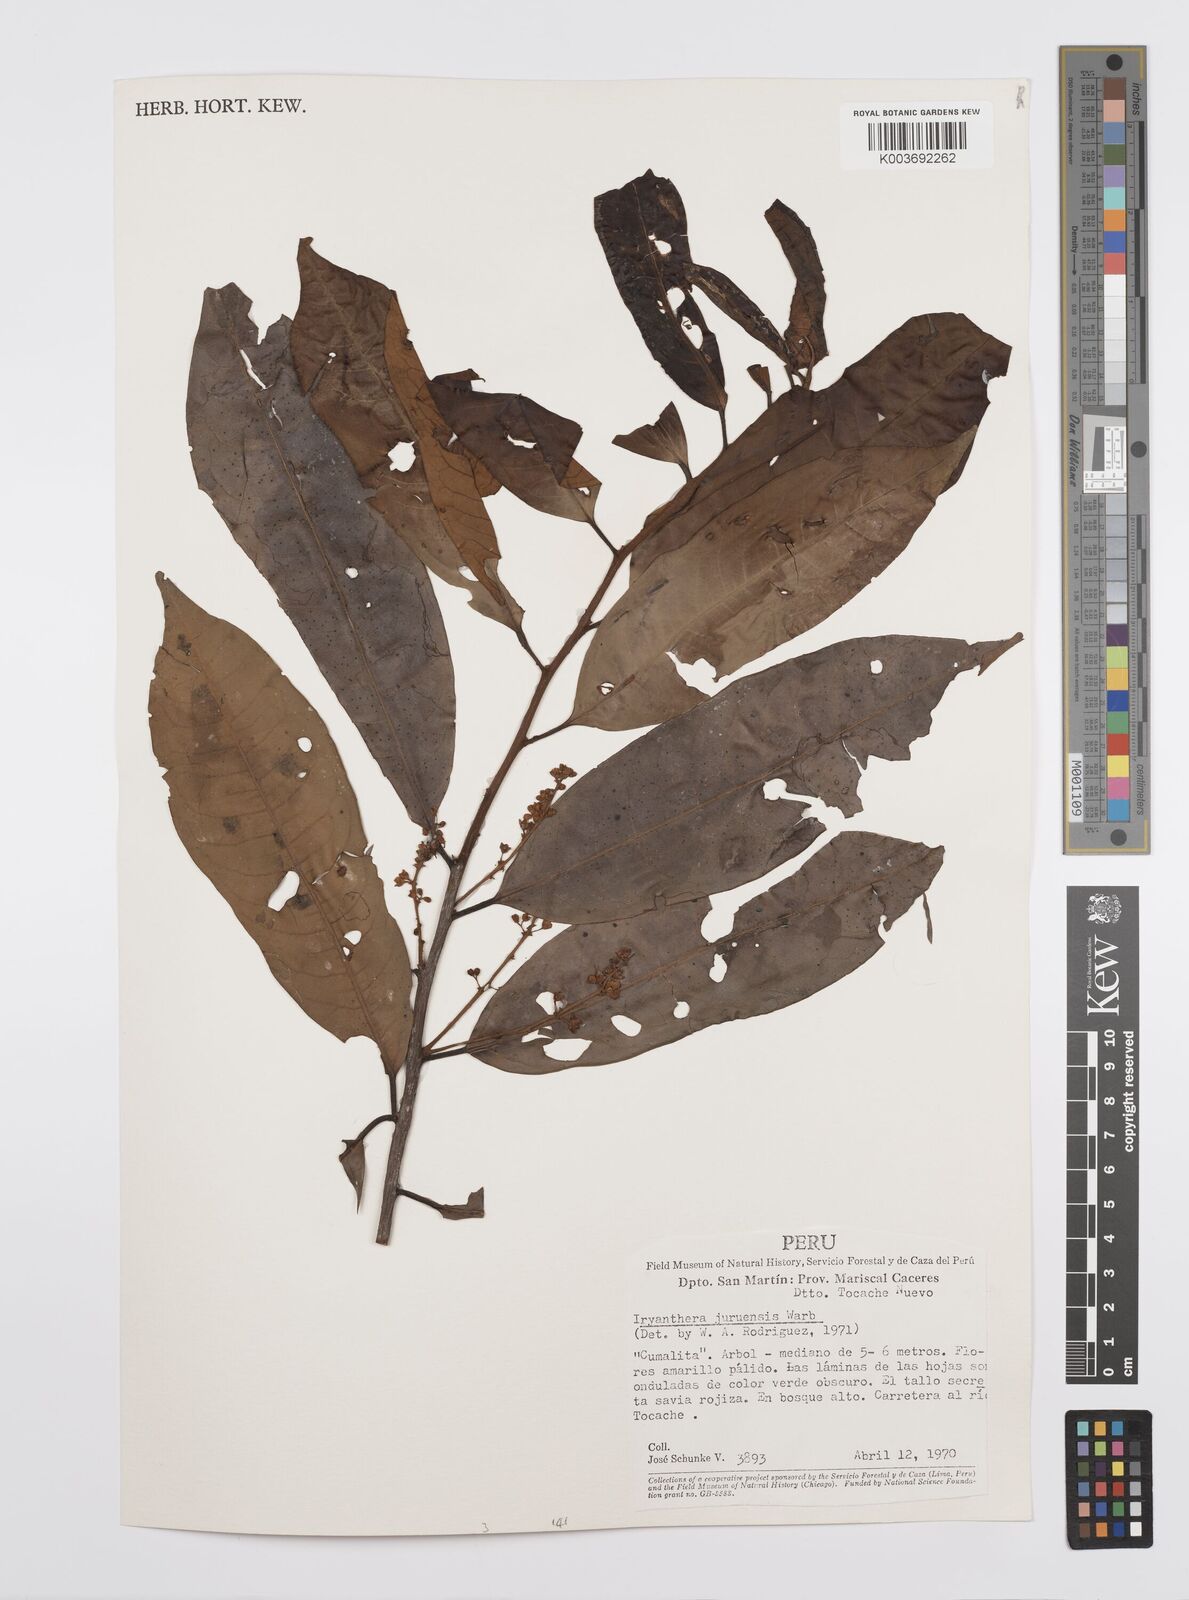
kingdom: Plantae
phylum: Tracheophyta
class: Magnoliopsida
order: Magnoliales
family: Myristicaceae
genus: Iryanthera
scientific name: Iryanthera juruensis
